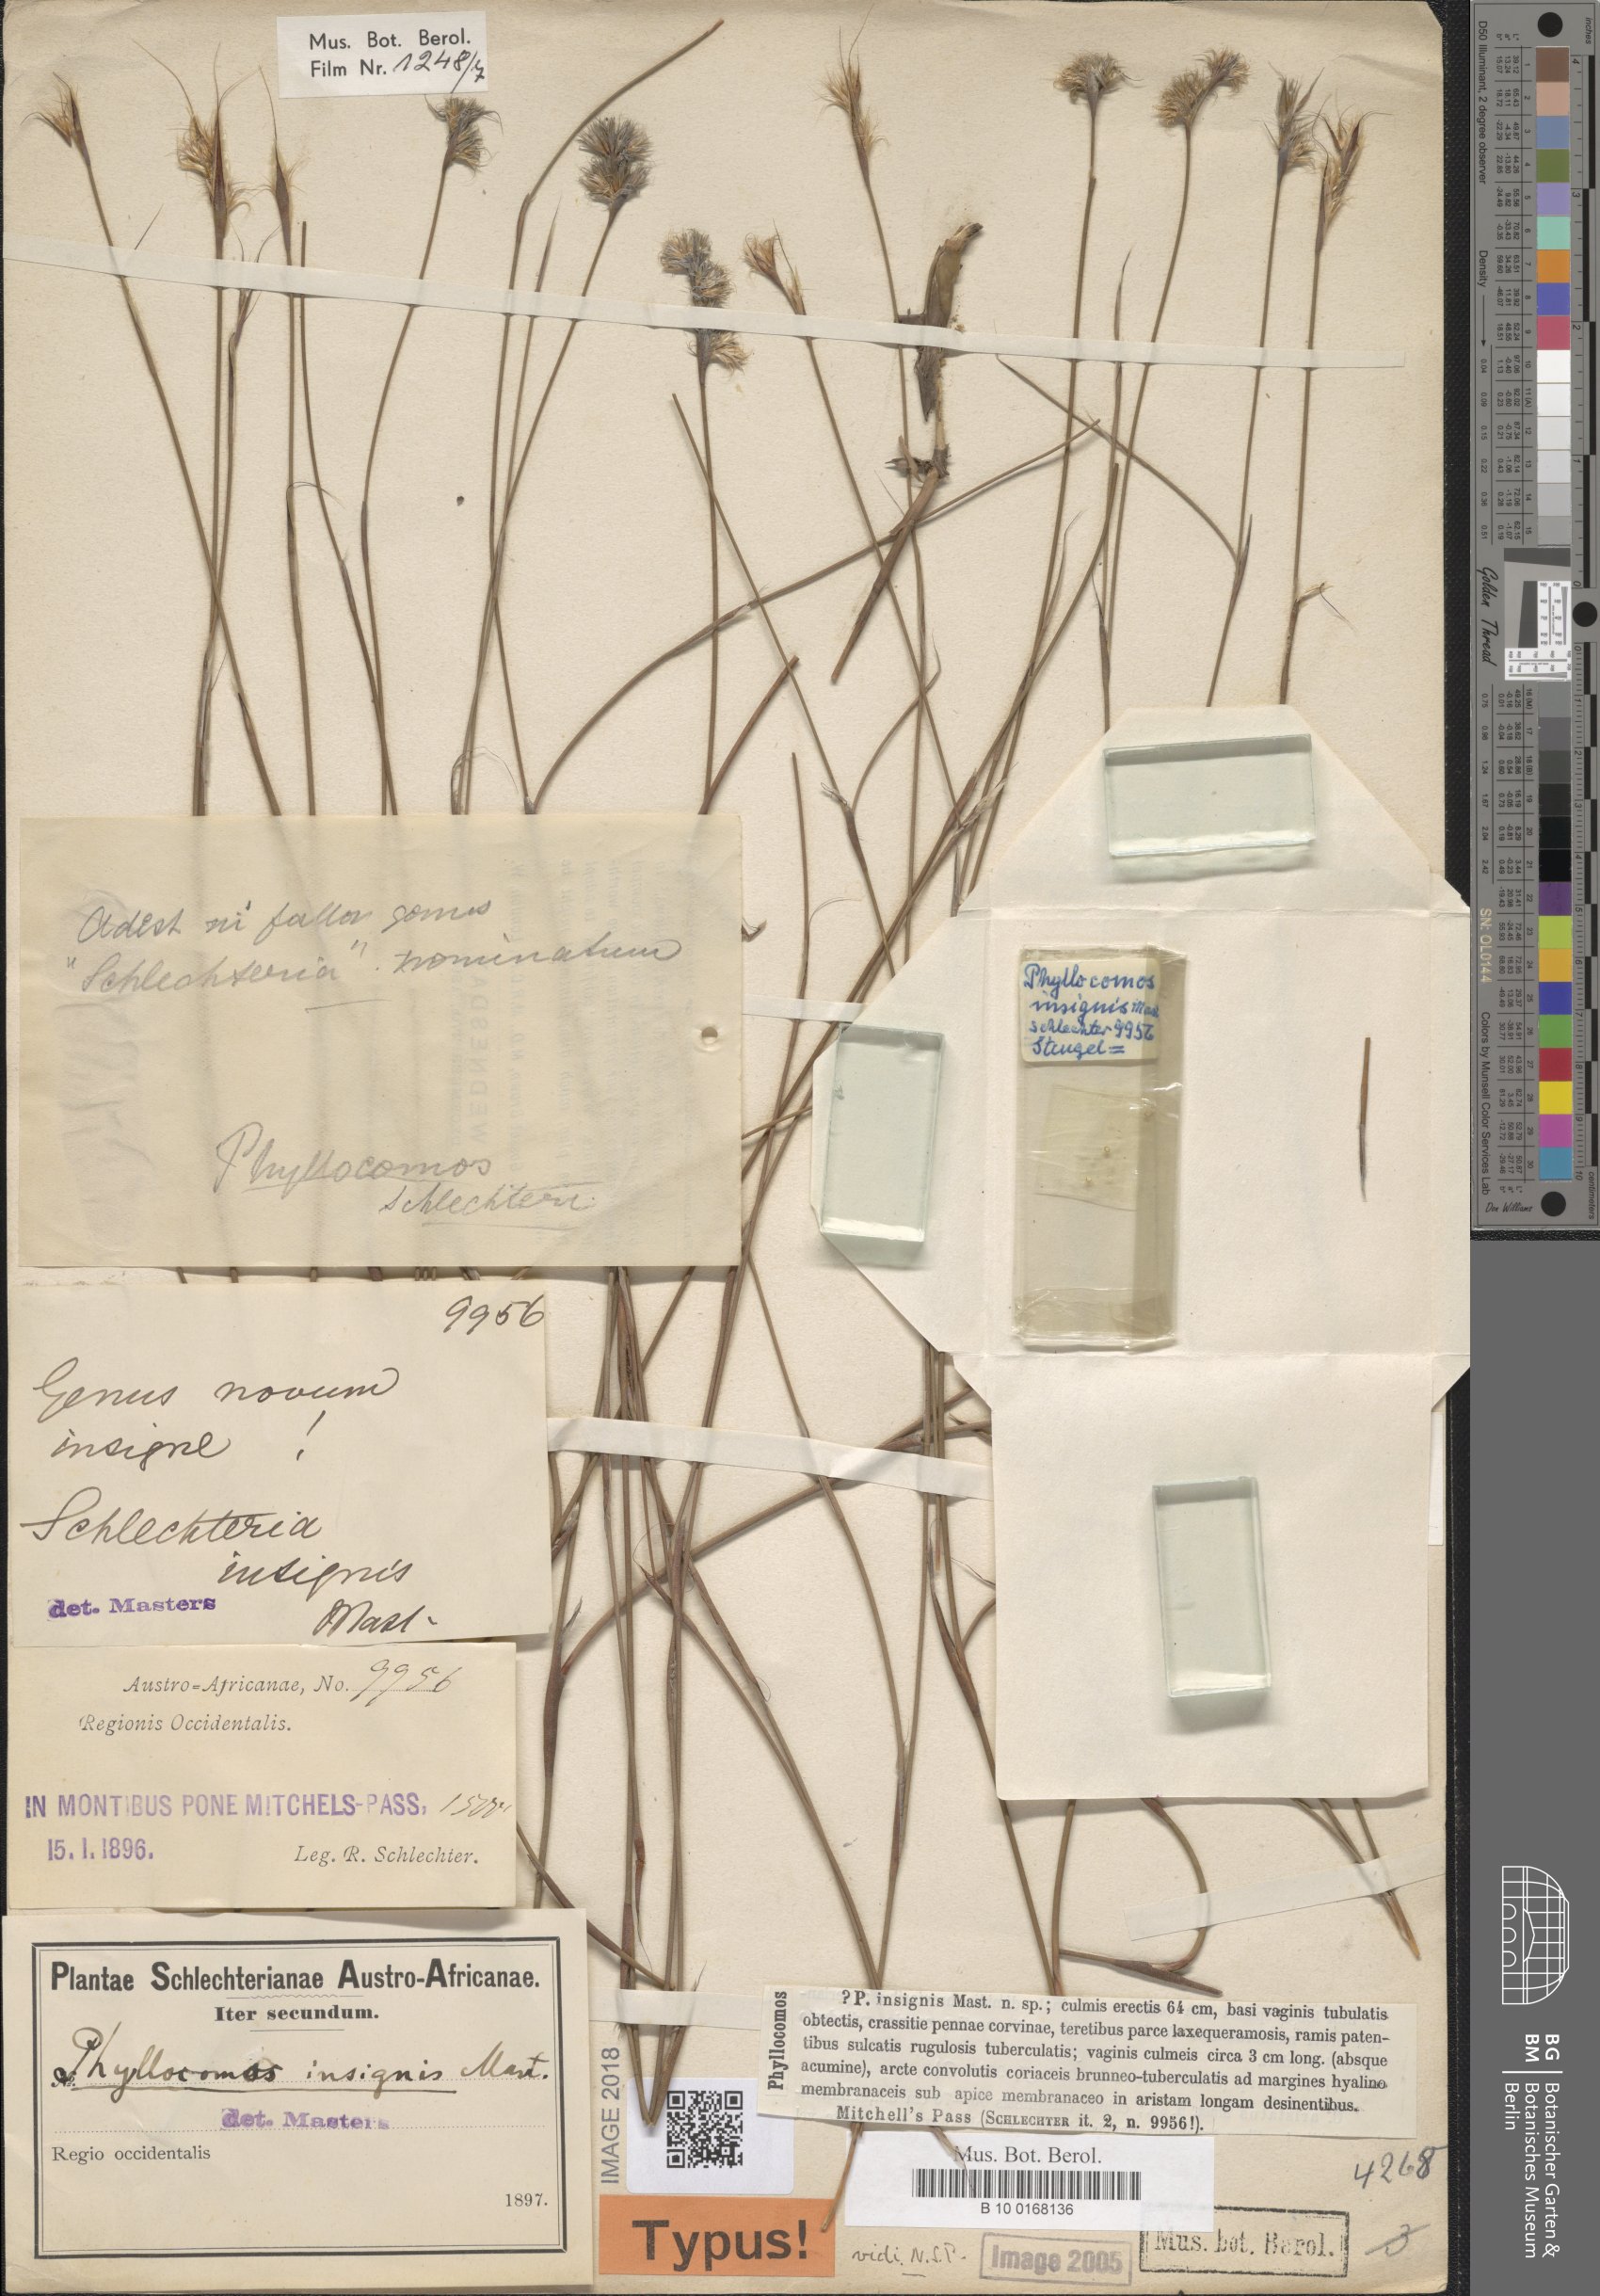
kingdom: Plantae
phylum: Tracheophyta
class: Liliopsida
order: Poales
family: Restionaceae
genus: Anthochortus
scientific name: Anthochortus insignis
